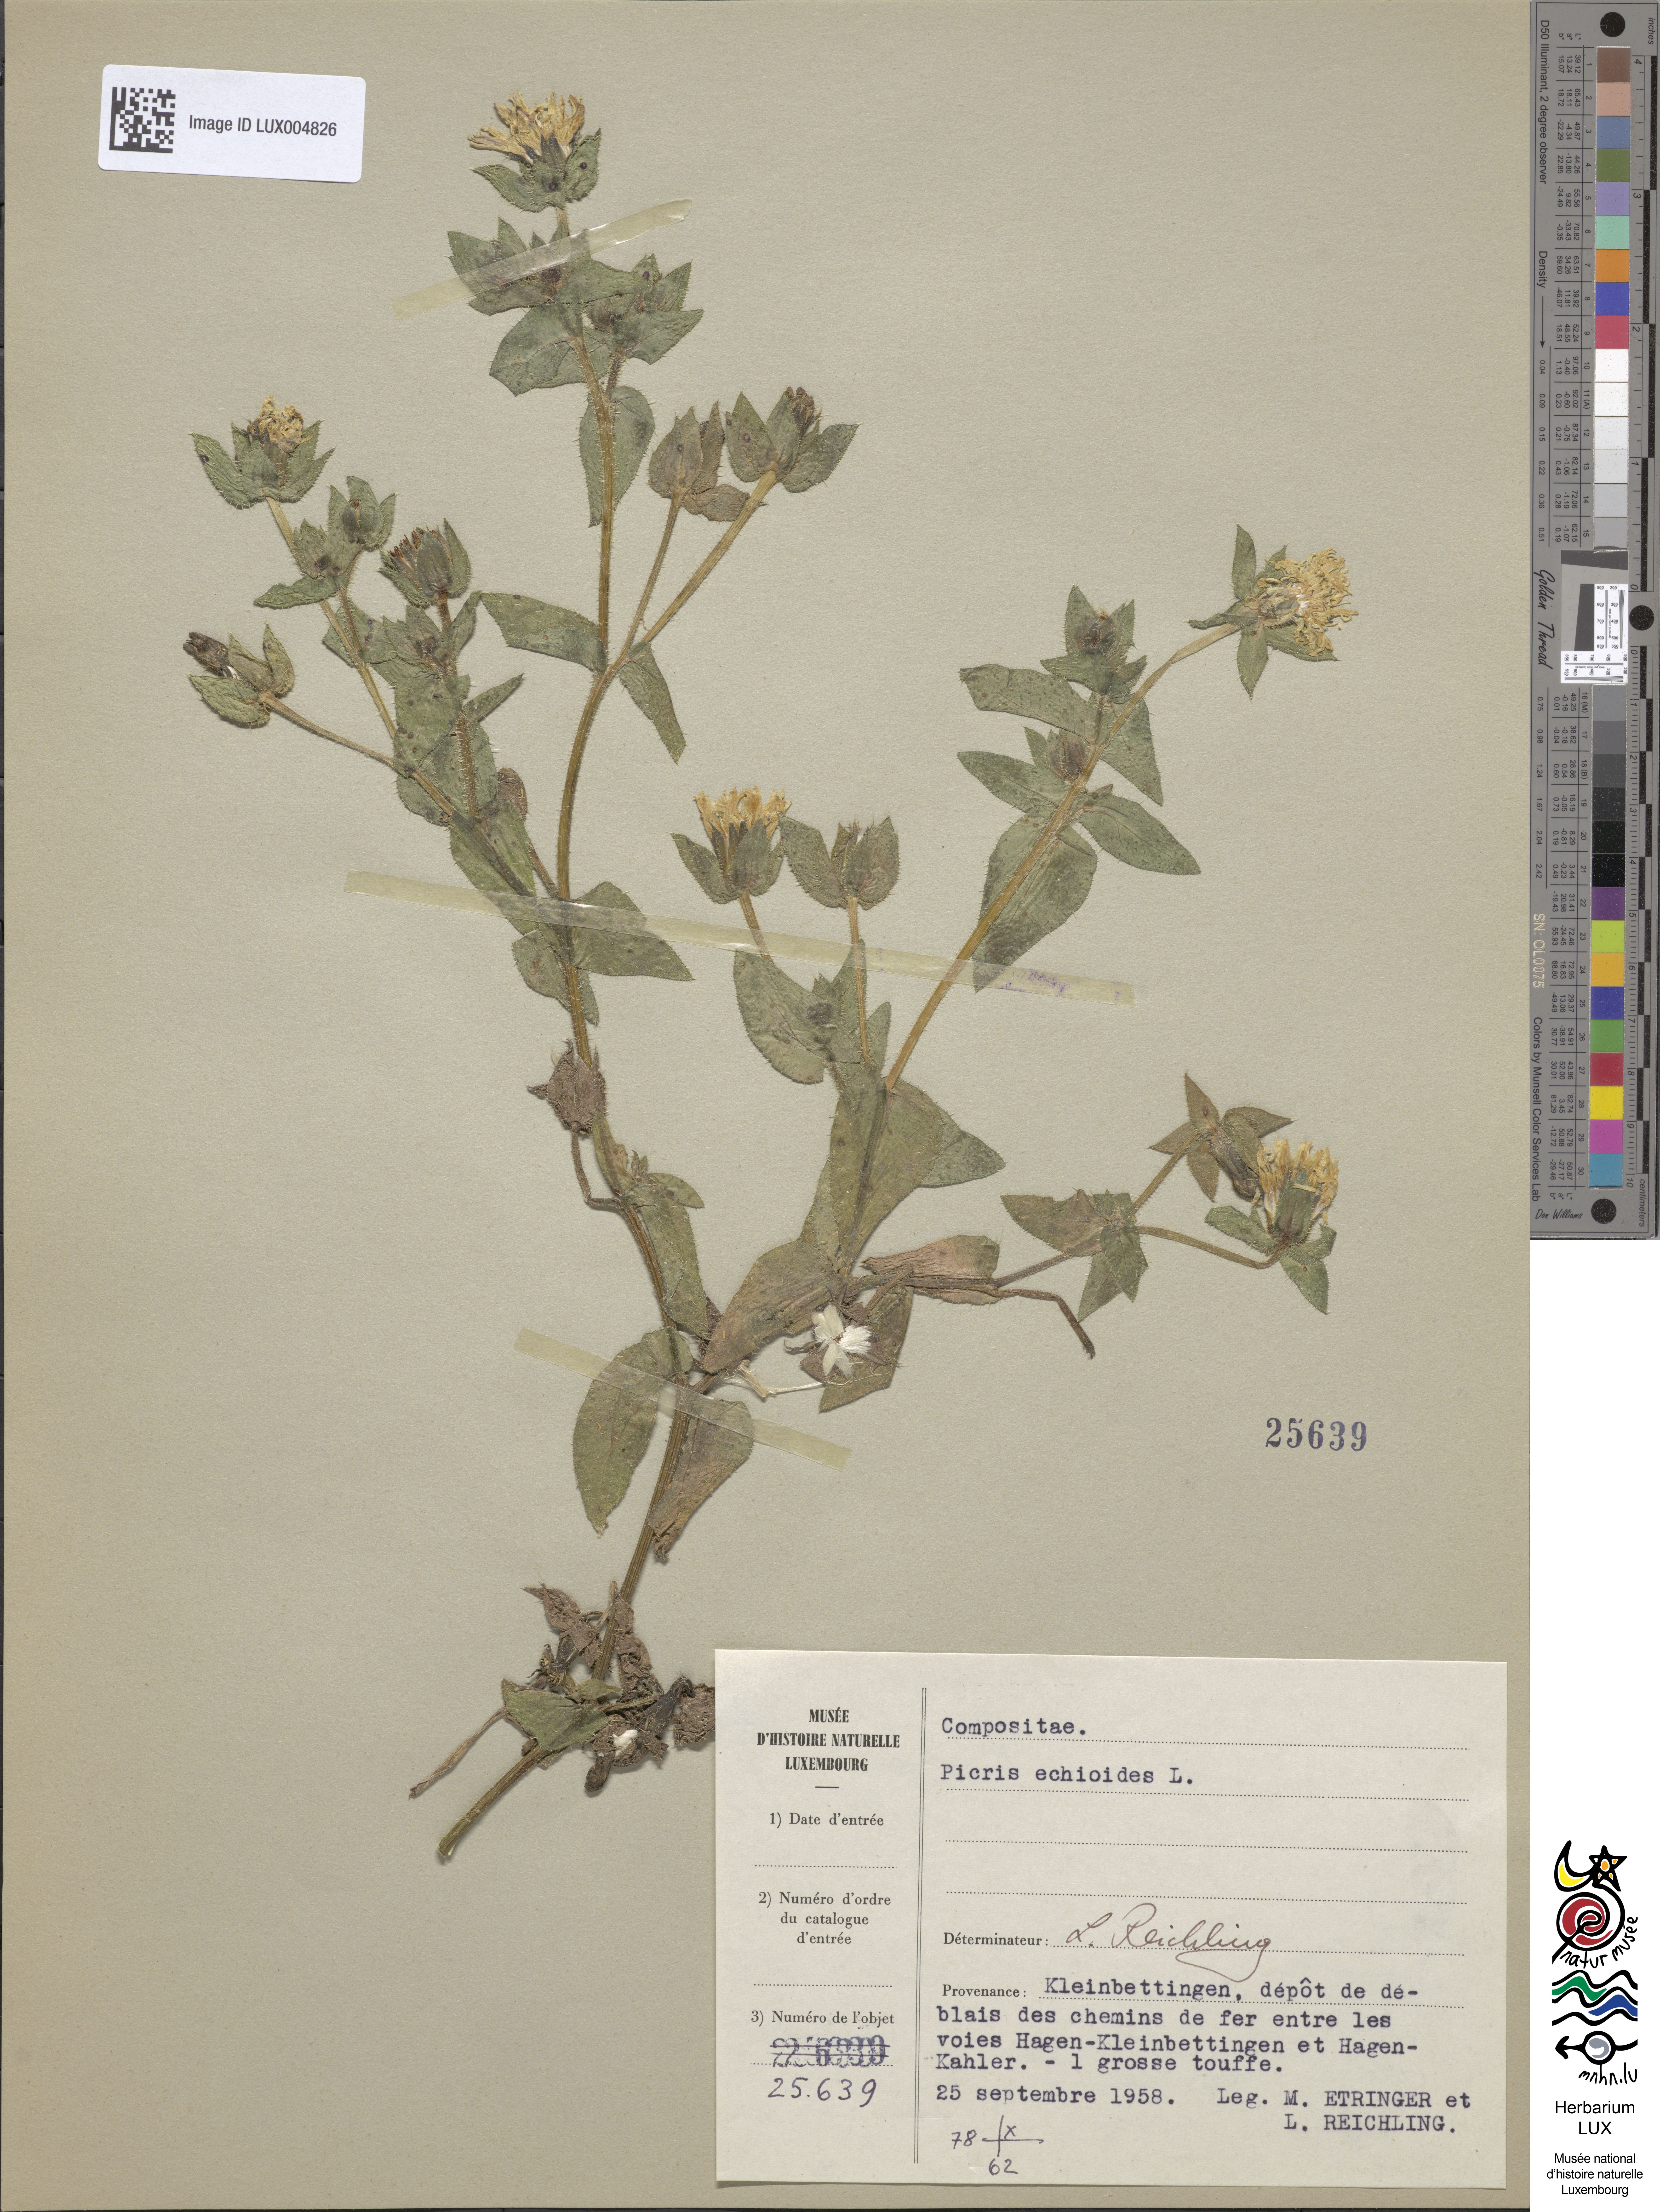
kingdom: Plantae
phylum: Tracheophyta
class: Magnoliopsida
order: Asterales
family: Asteraceae
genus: Helminthotheca
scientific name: Helminthotheca echioides
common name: Ox-tongue
